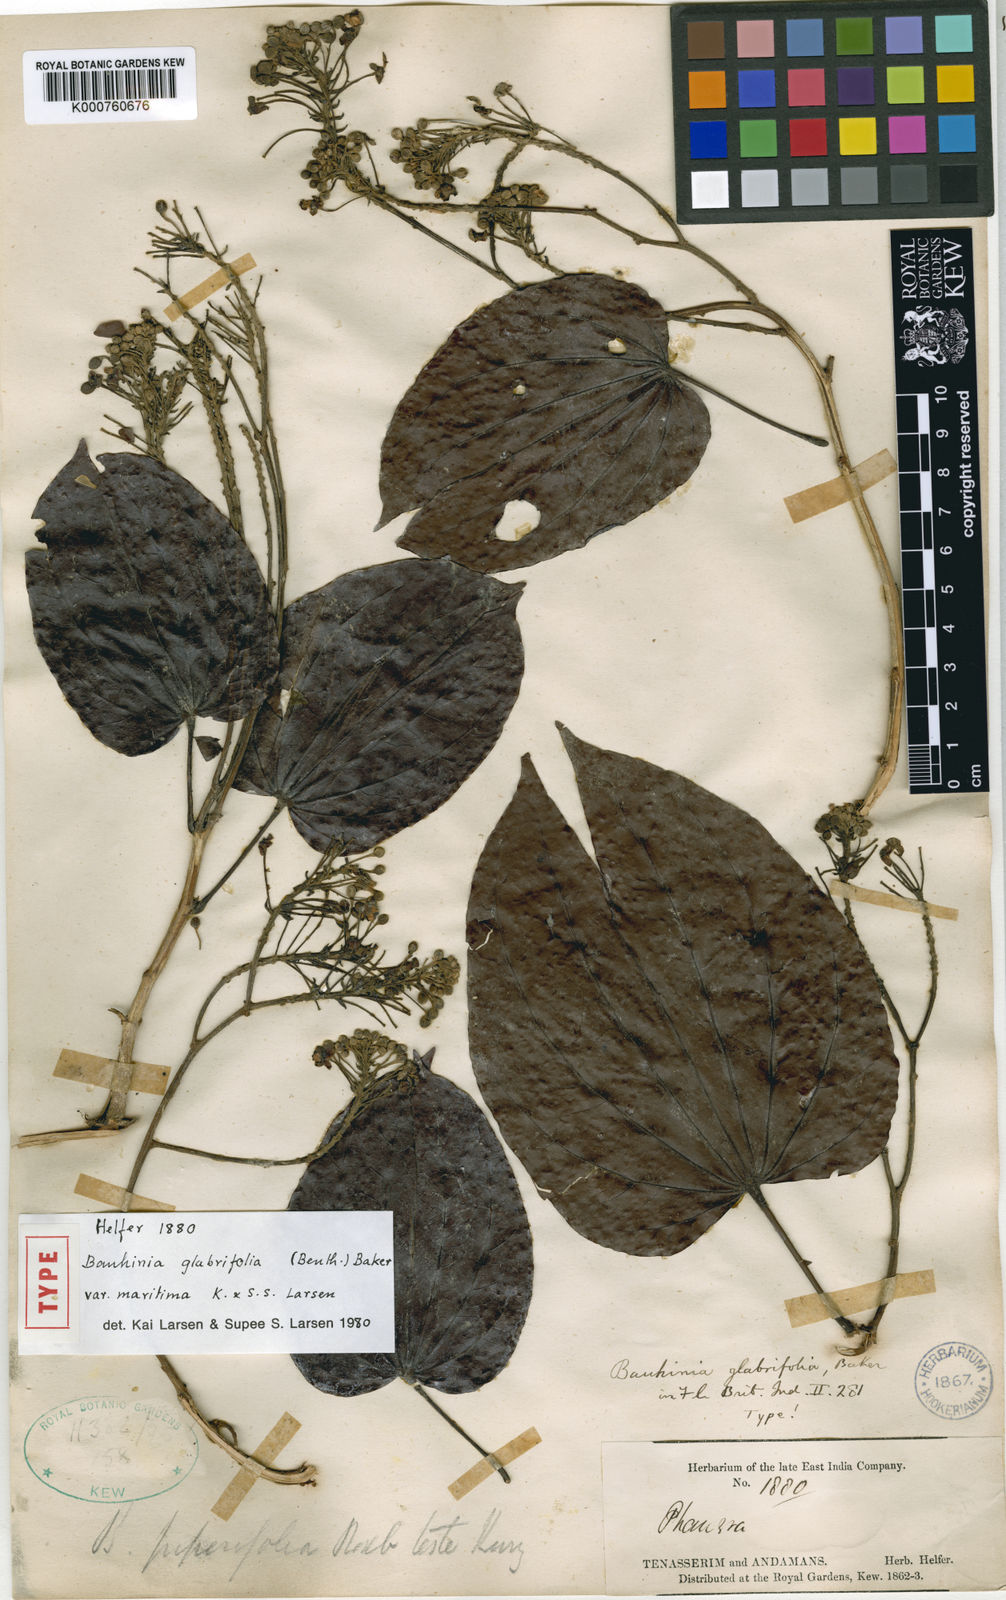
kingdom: Plantae
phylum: Tracheophyta
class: Magnoliopsida
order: Fabales
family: Fabaceae
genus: Phanera
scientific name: Phanera glabrifolia
